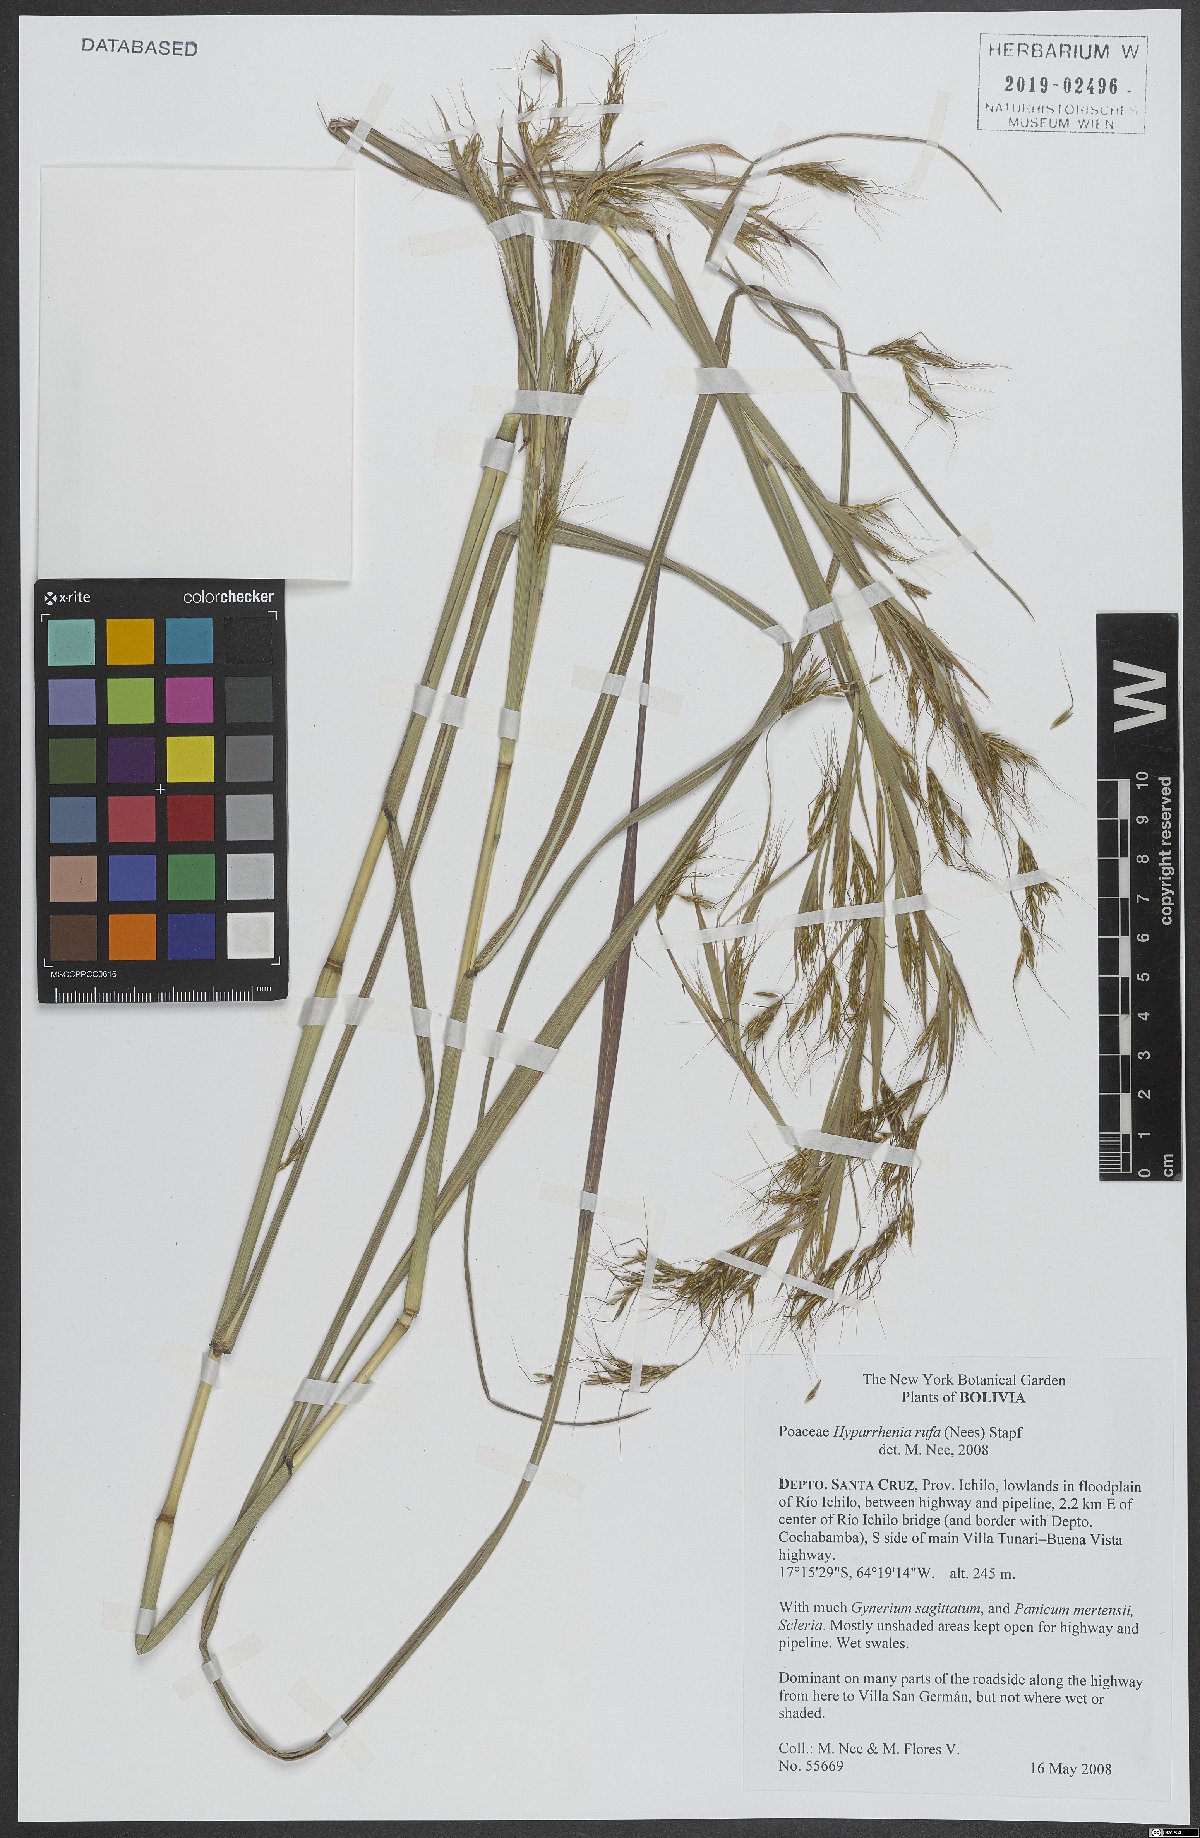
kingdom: Plantae
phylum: Tracheophyta
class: Liliopsida
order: Poales
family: Poaceae
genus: Hyparrhenia
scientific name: Hyparrhenia rufa
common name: Jaraguagrass
